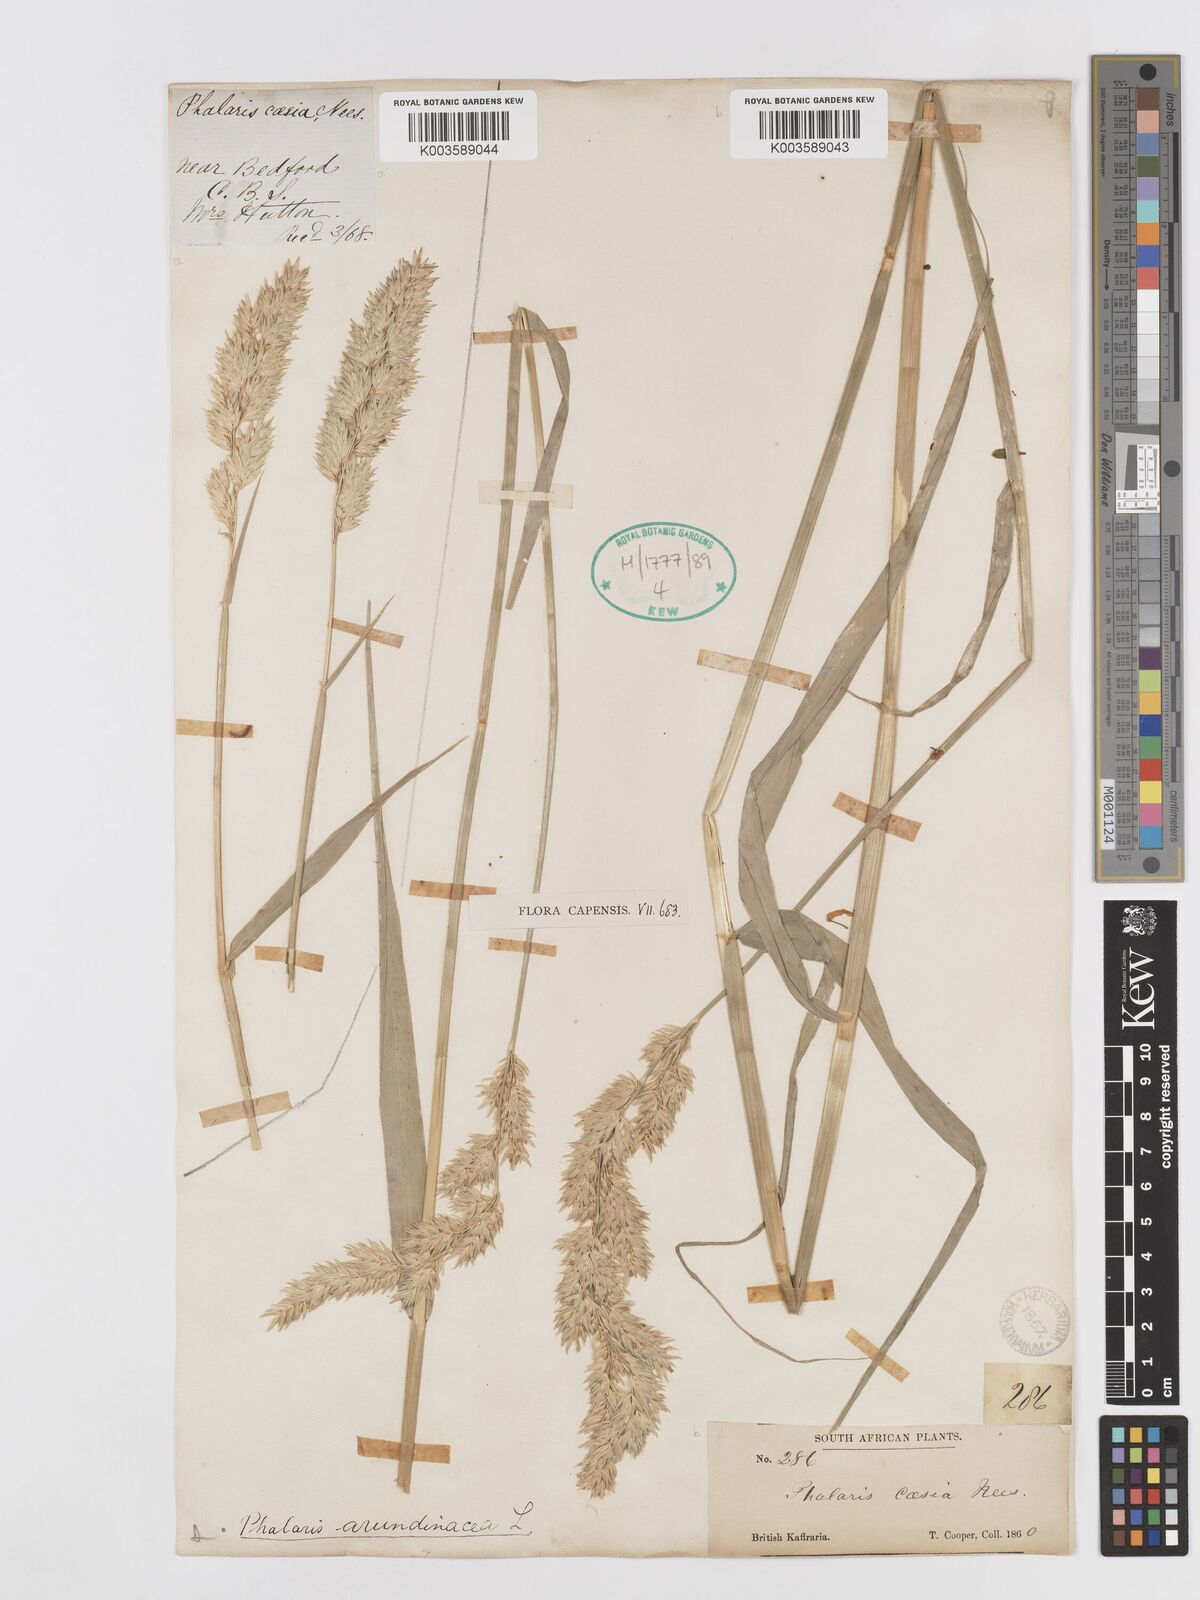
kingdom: Plantae
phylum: Tracheophyta
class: Liliopsida
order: Poales
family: Poaceae
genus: Phalaris
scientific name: Phalaris arundinacea
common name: Reed canary-grass
